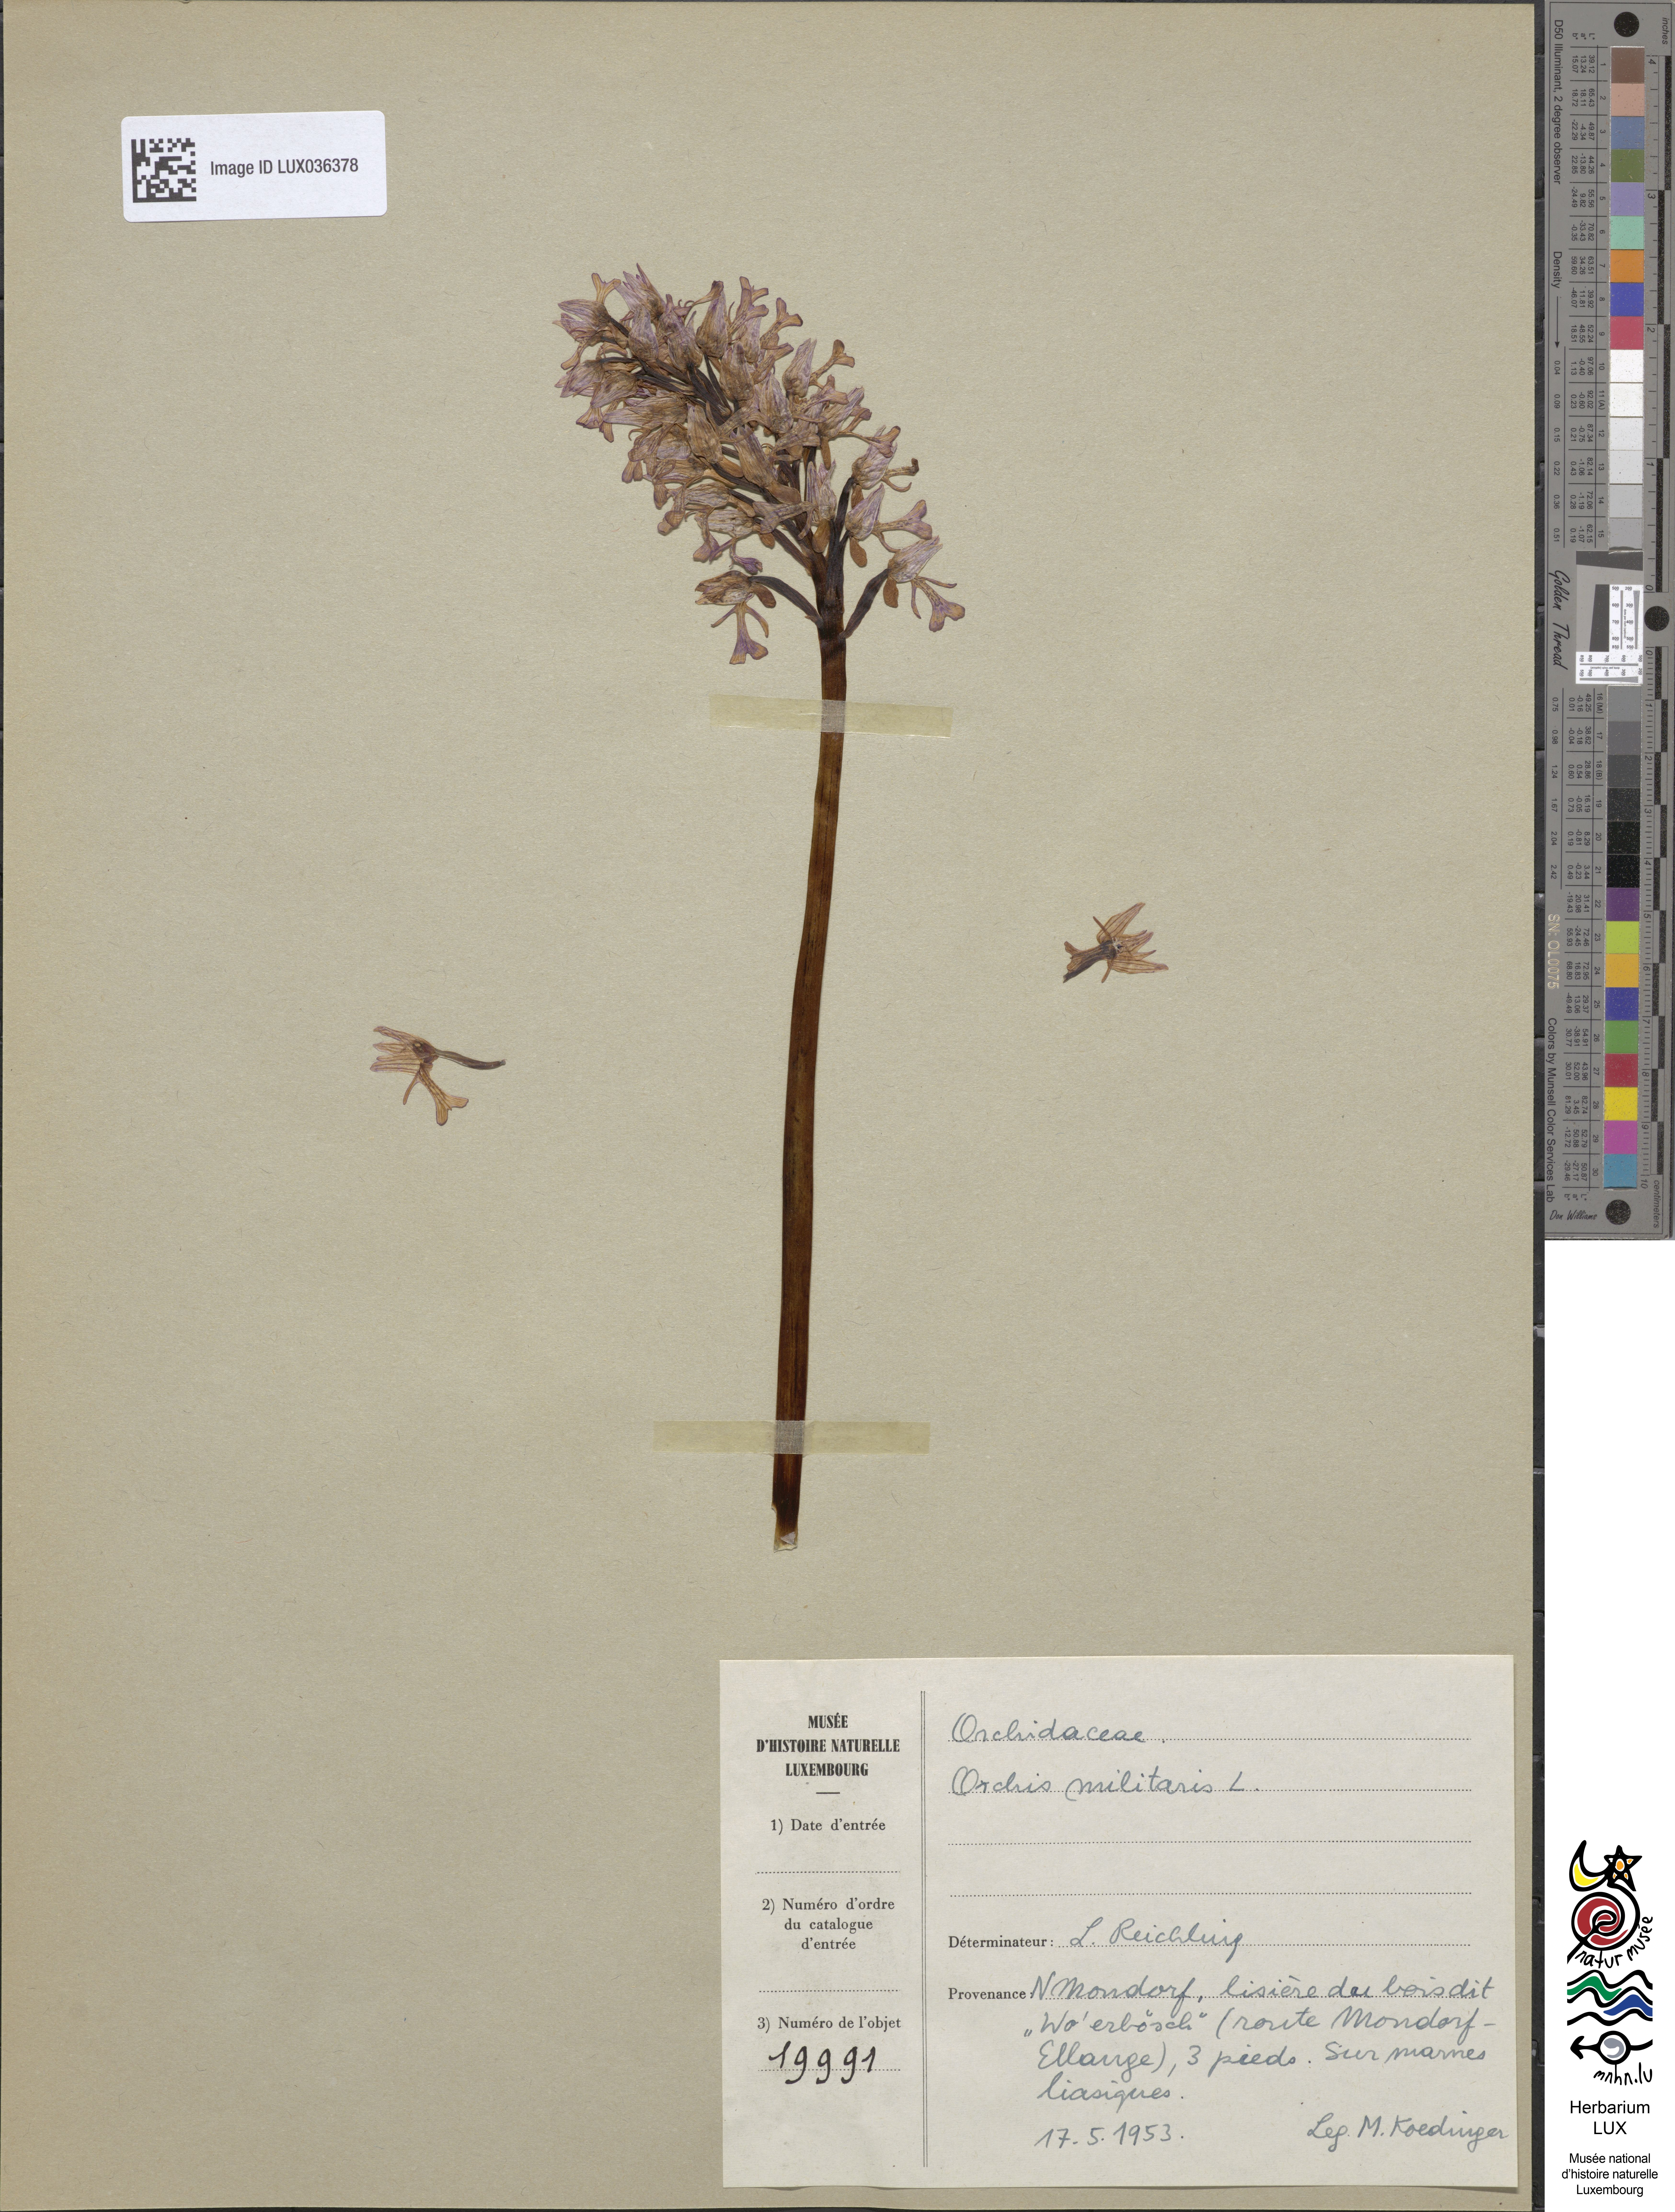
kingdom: Plantae
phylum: Tracheophyta
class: Liliopsida
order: Asparagales
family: Orchidaceae
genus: Orchis
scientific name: Orchis militaris
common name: Military orchid
